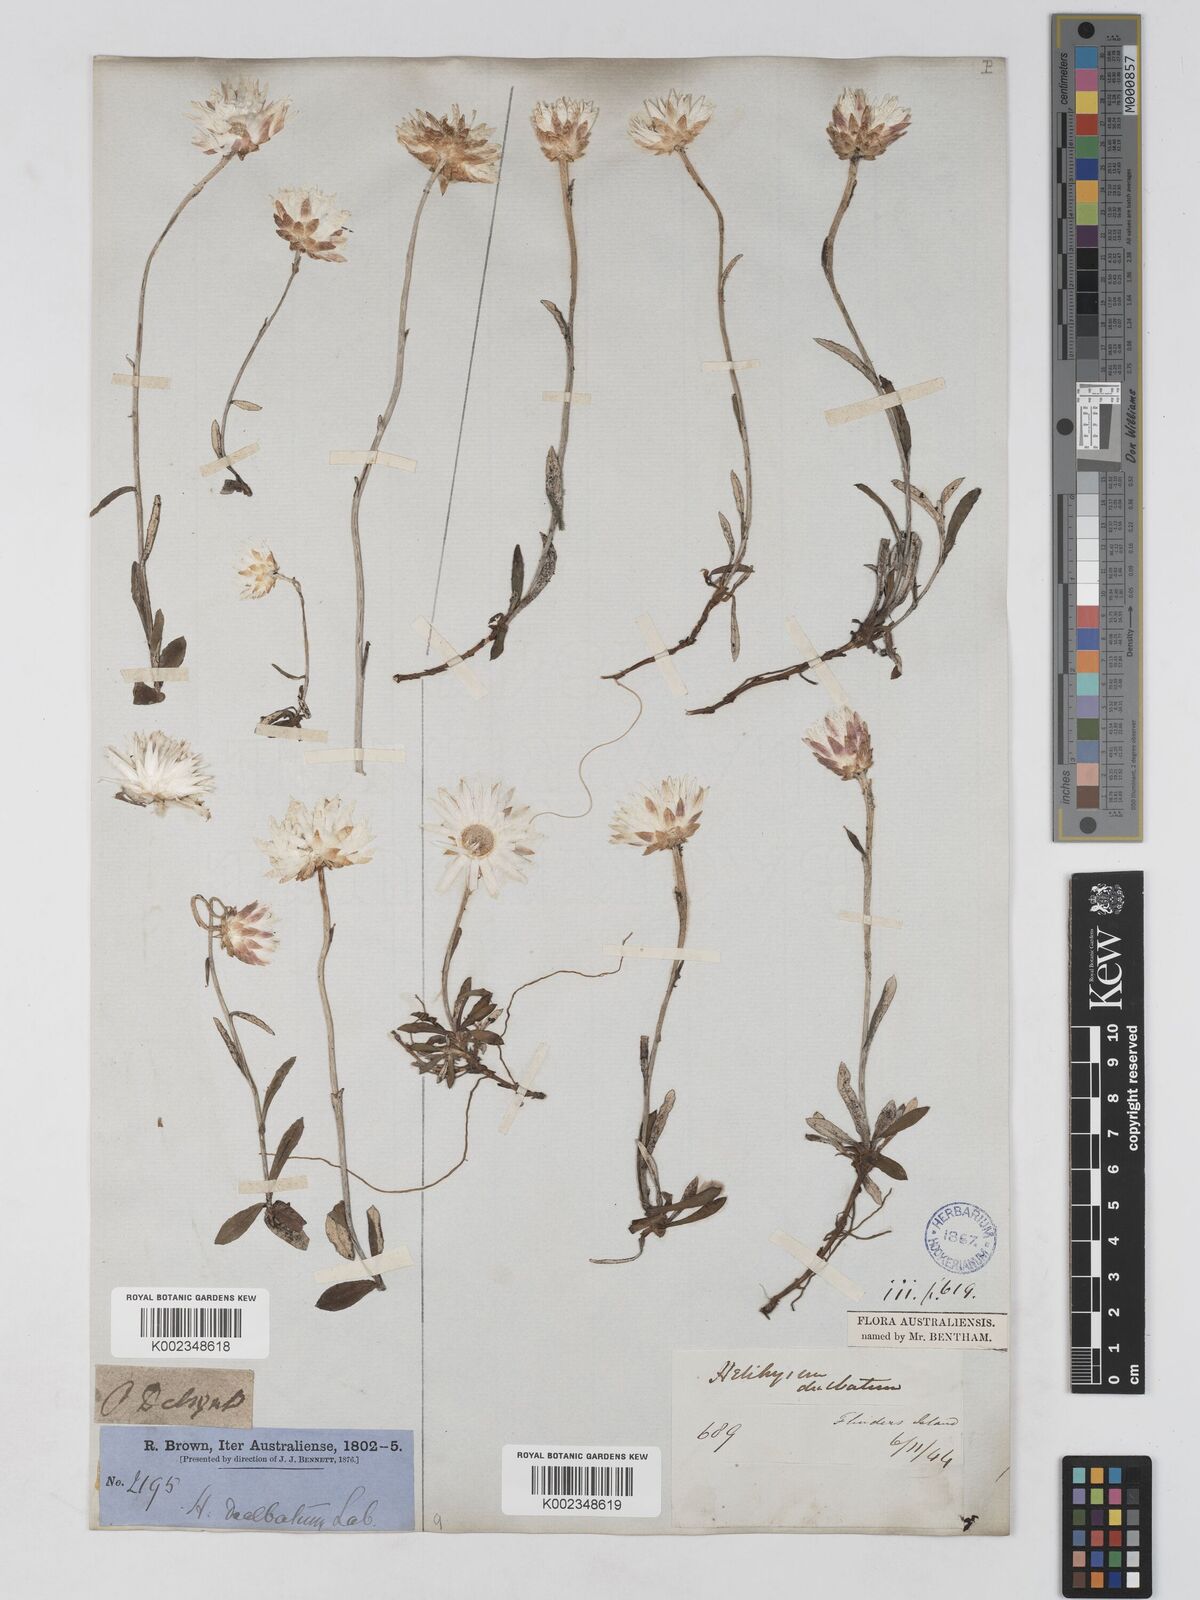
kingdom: Plantae
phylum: Tracheophyta
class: Magnoliopsida
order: Asterales
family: Asteraceae
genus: Argentipallium
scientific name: Argentipallium dealbatum
